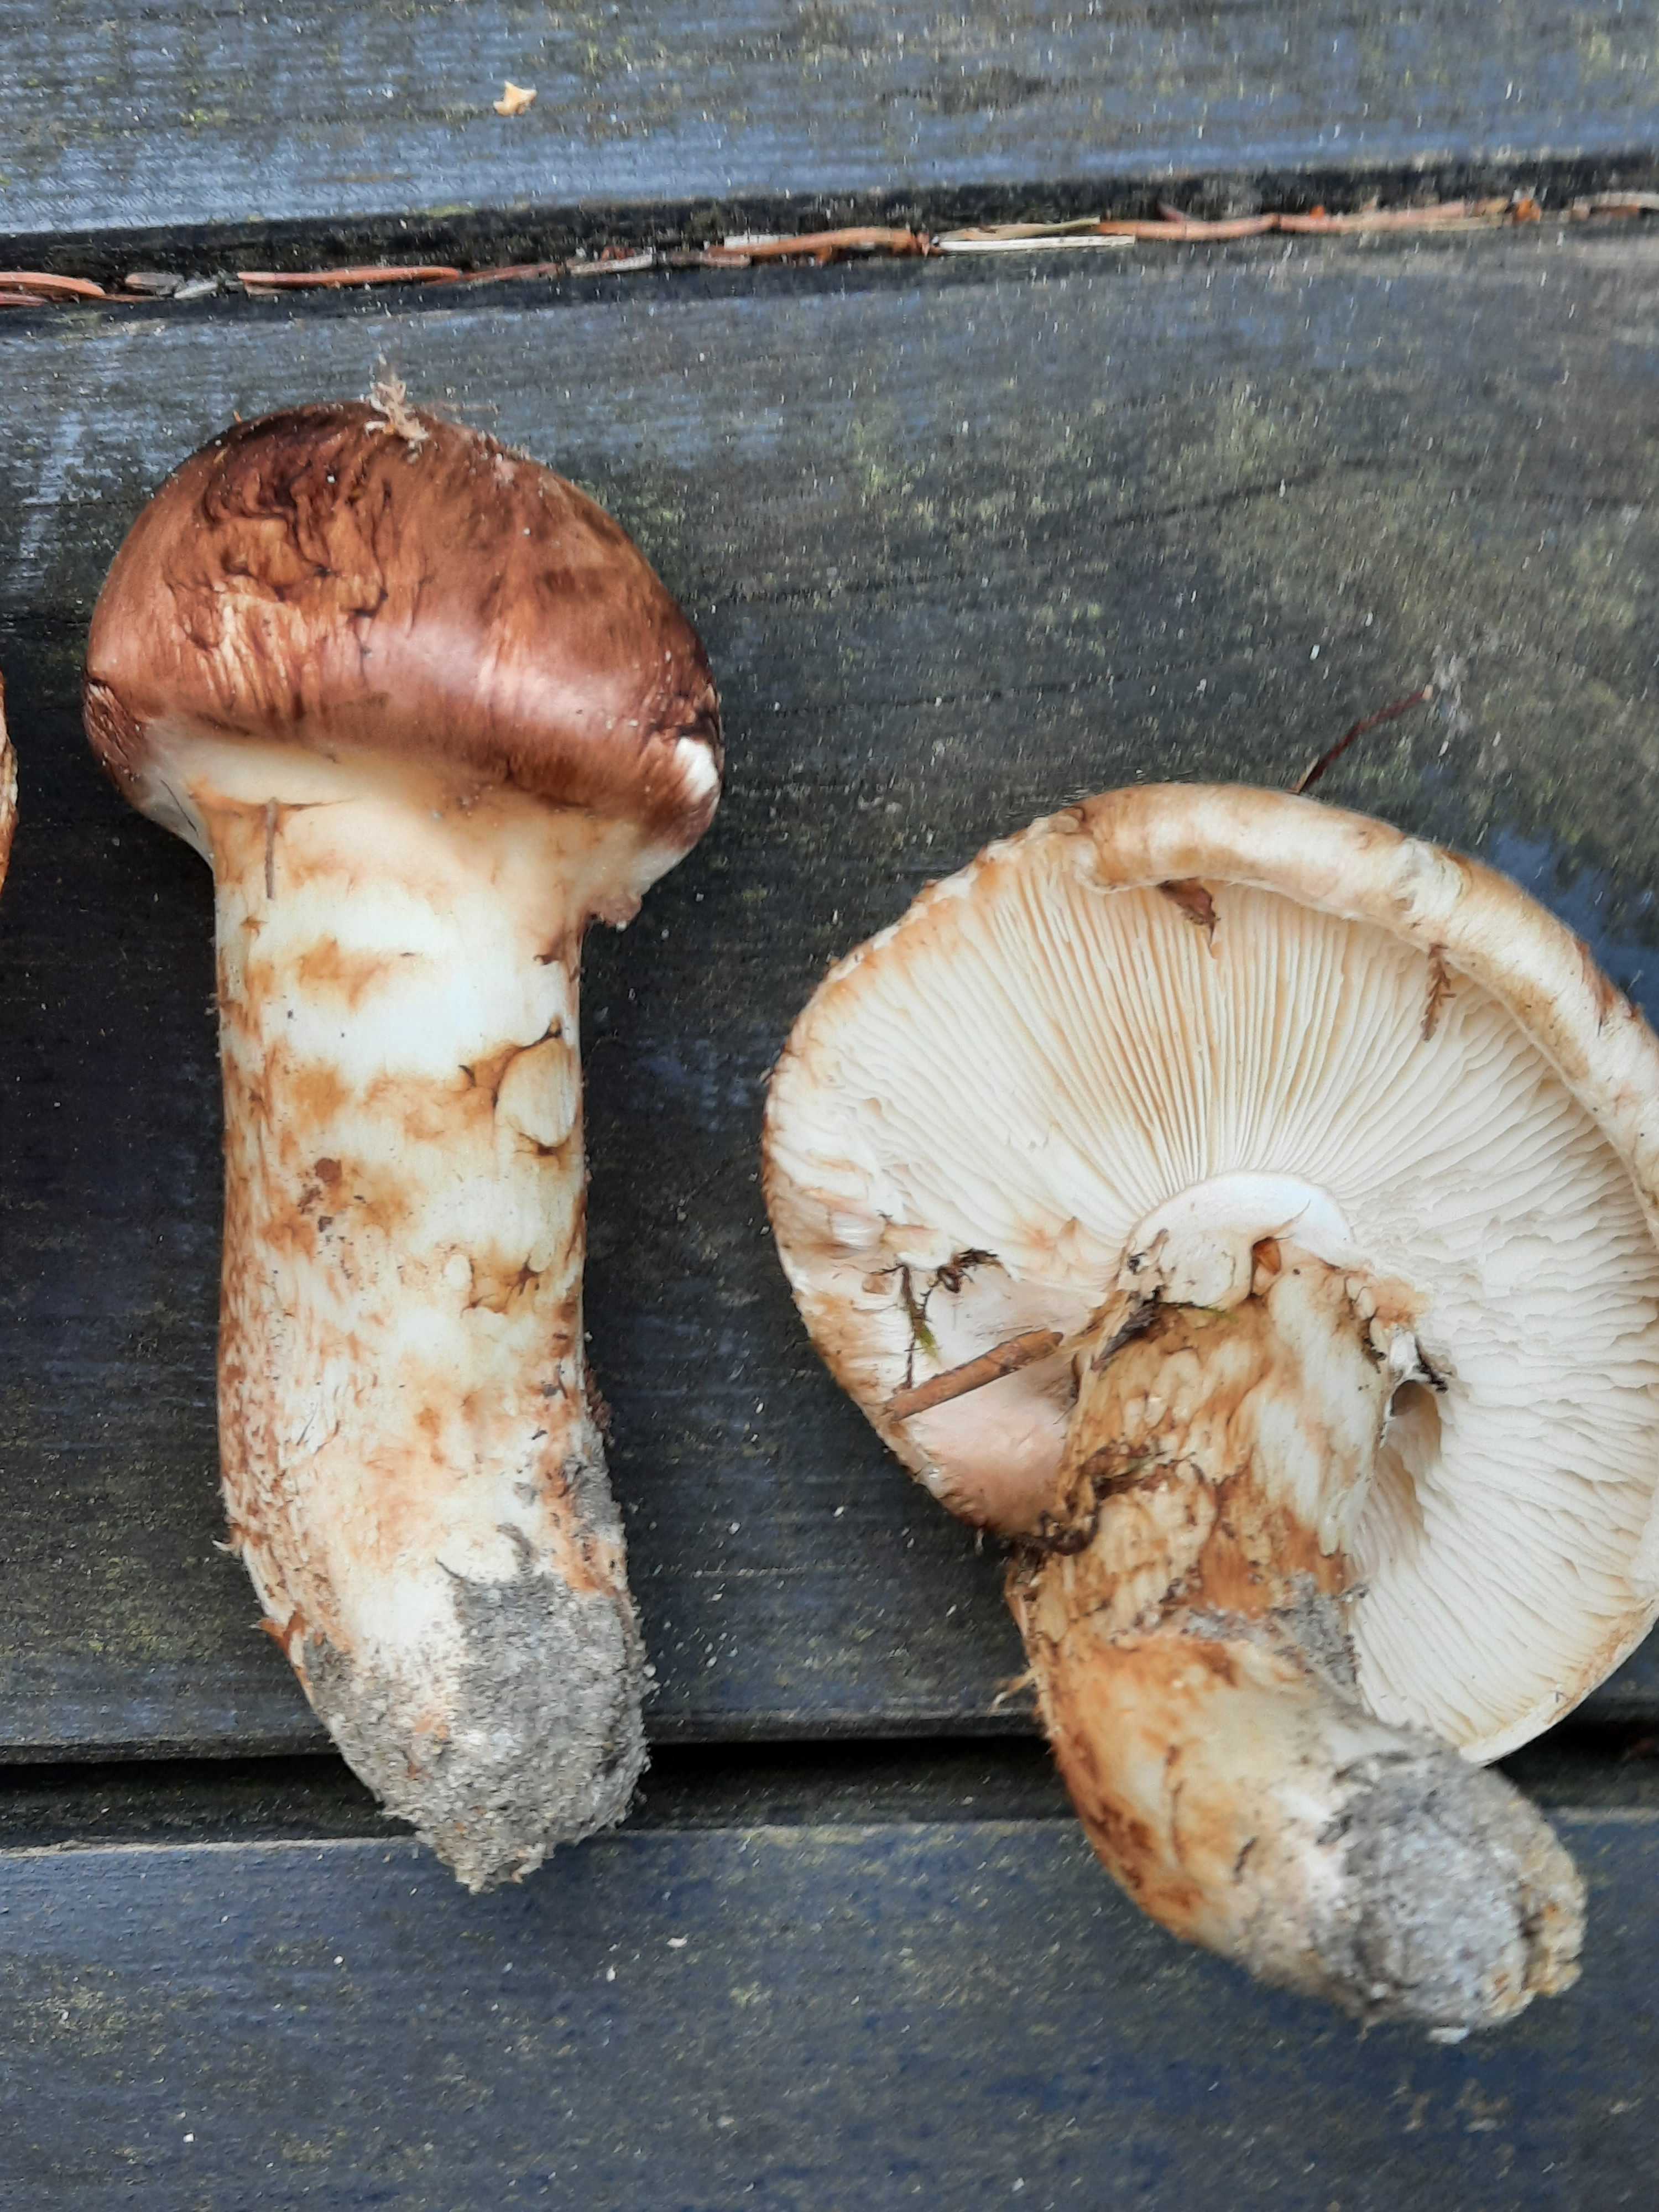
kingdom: Fungi
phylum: Basidiomycota
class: Agaricomycetes
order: Agaricales
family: Tricholomataceae
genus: Tricholoma
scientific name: Tricholoma matsutake
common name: duft-ridderhat
